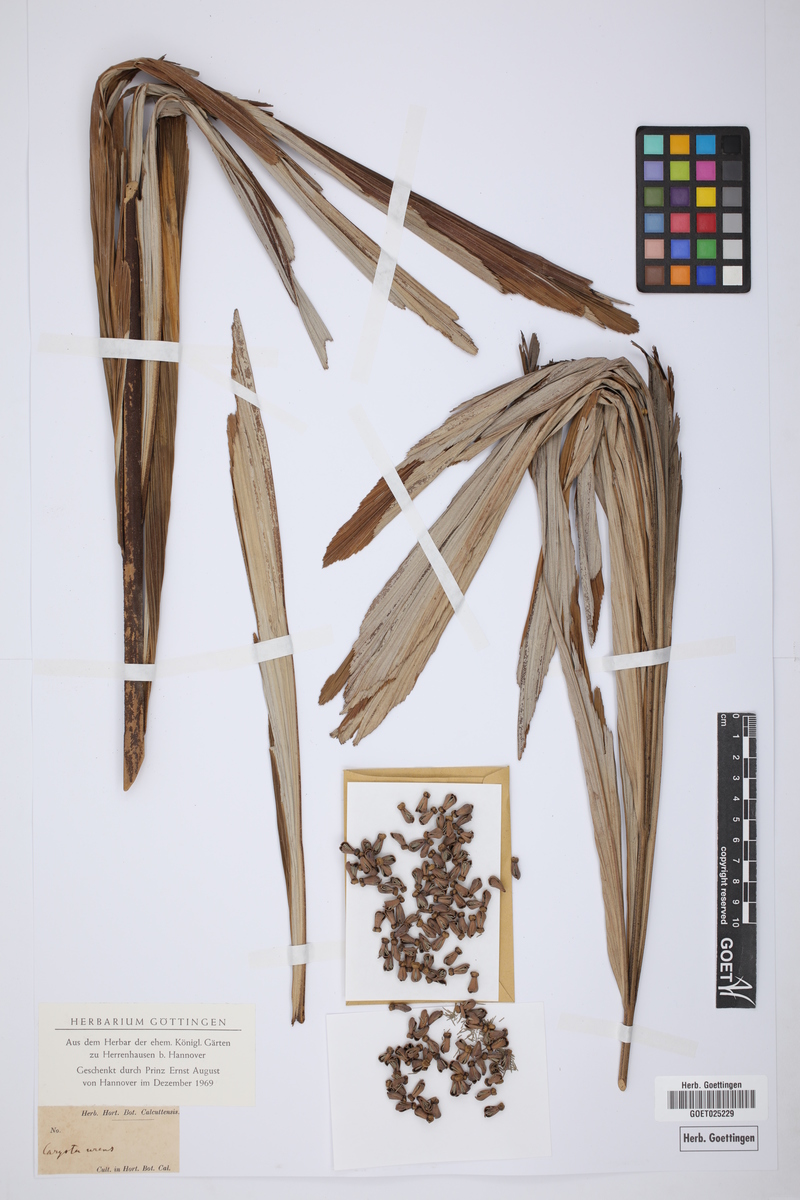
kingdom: Plantae
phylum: Tracheophyta
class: Liliopsida
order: Arecales
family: Arecaceae
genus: Caryota
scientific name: Caryota urens
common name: Jaggery palm
